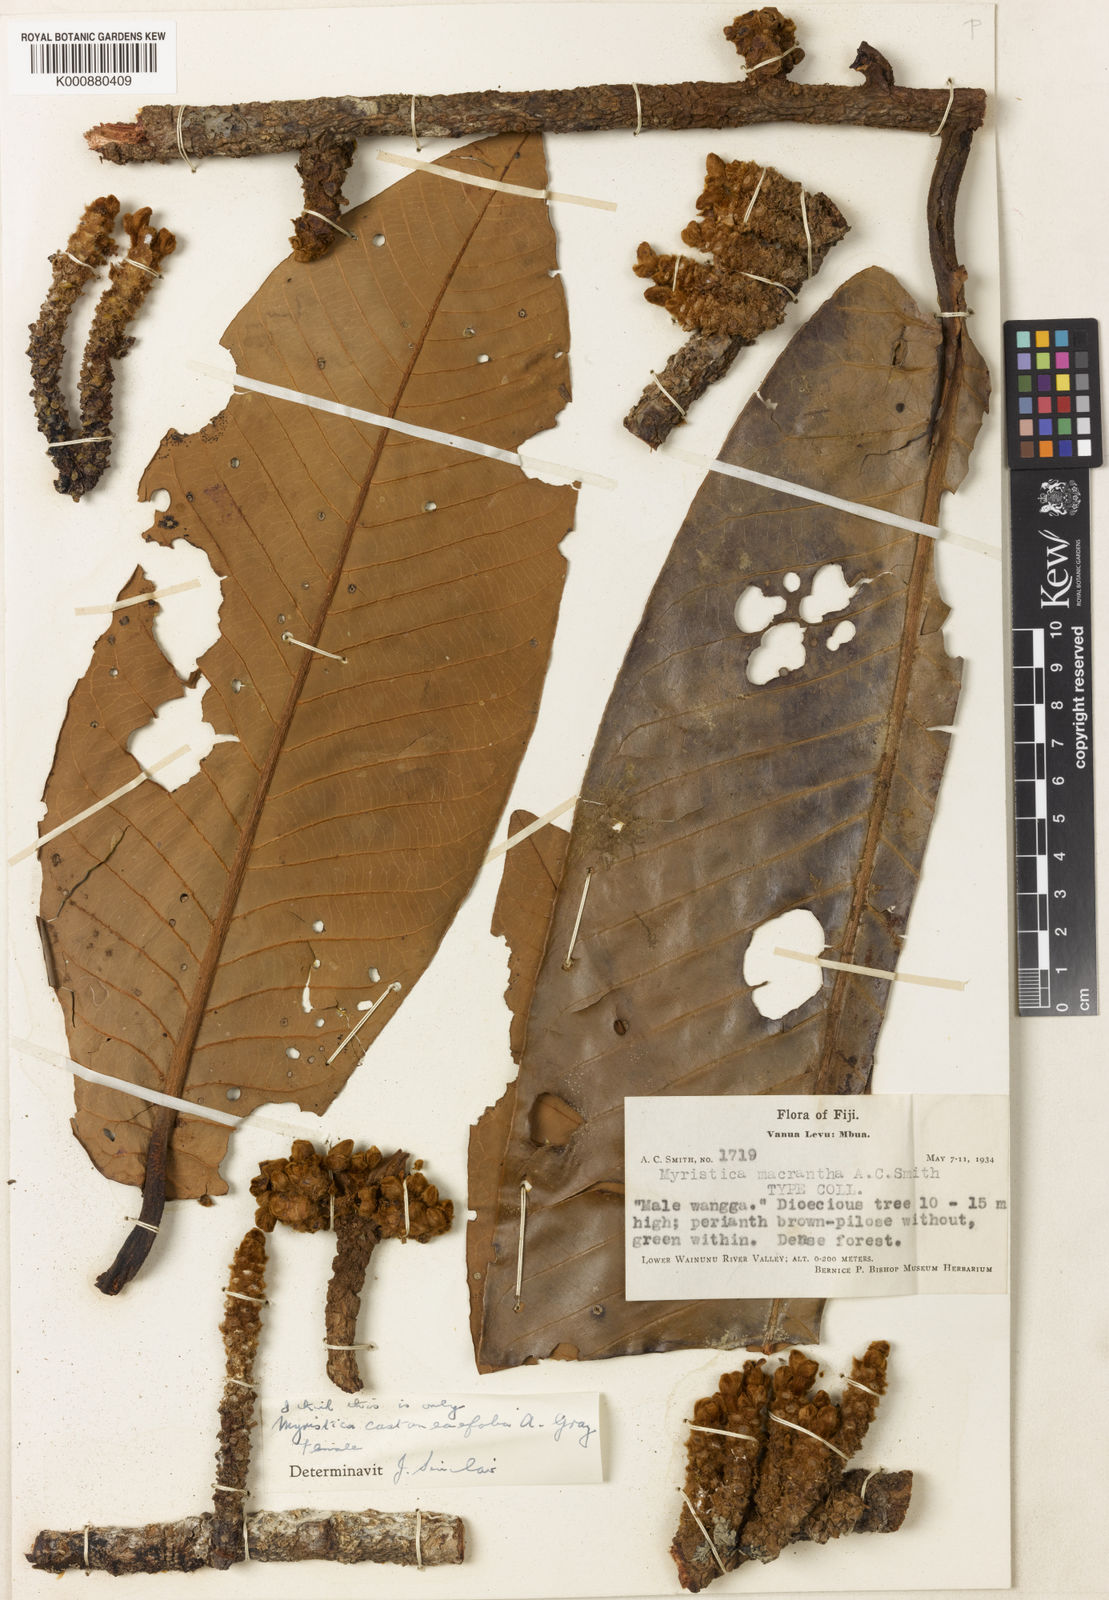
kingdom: Plantae
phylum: Tracheophyta
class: Magnoliopsida
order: Magnoliales
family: Myristicaceae
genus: Myristica
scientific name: Myristica castaneifolia
